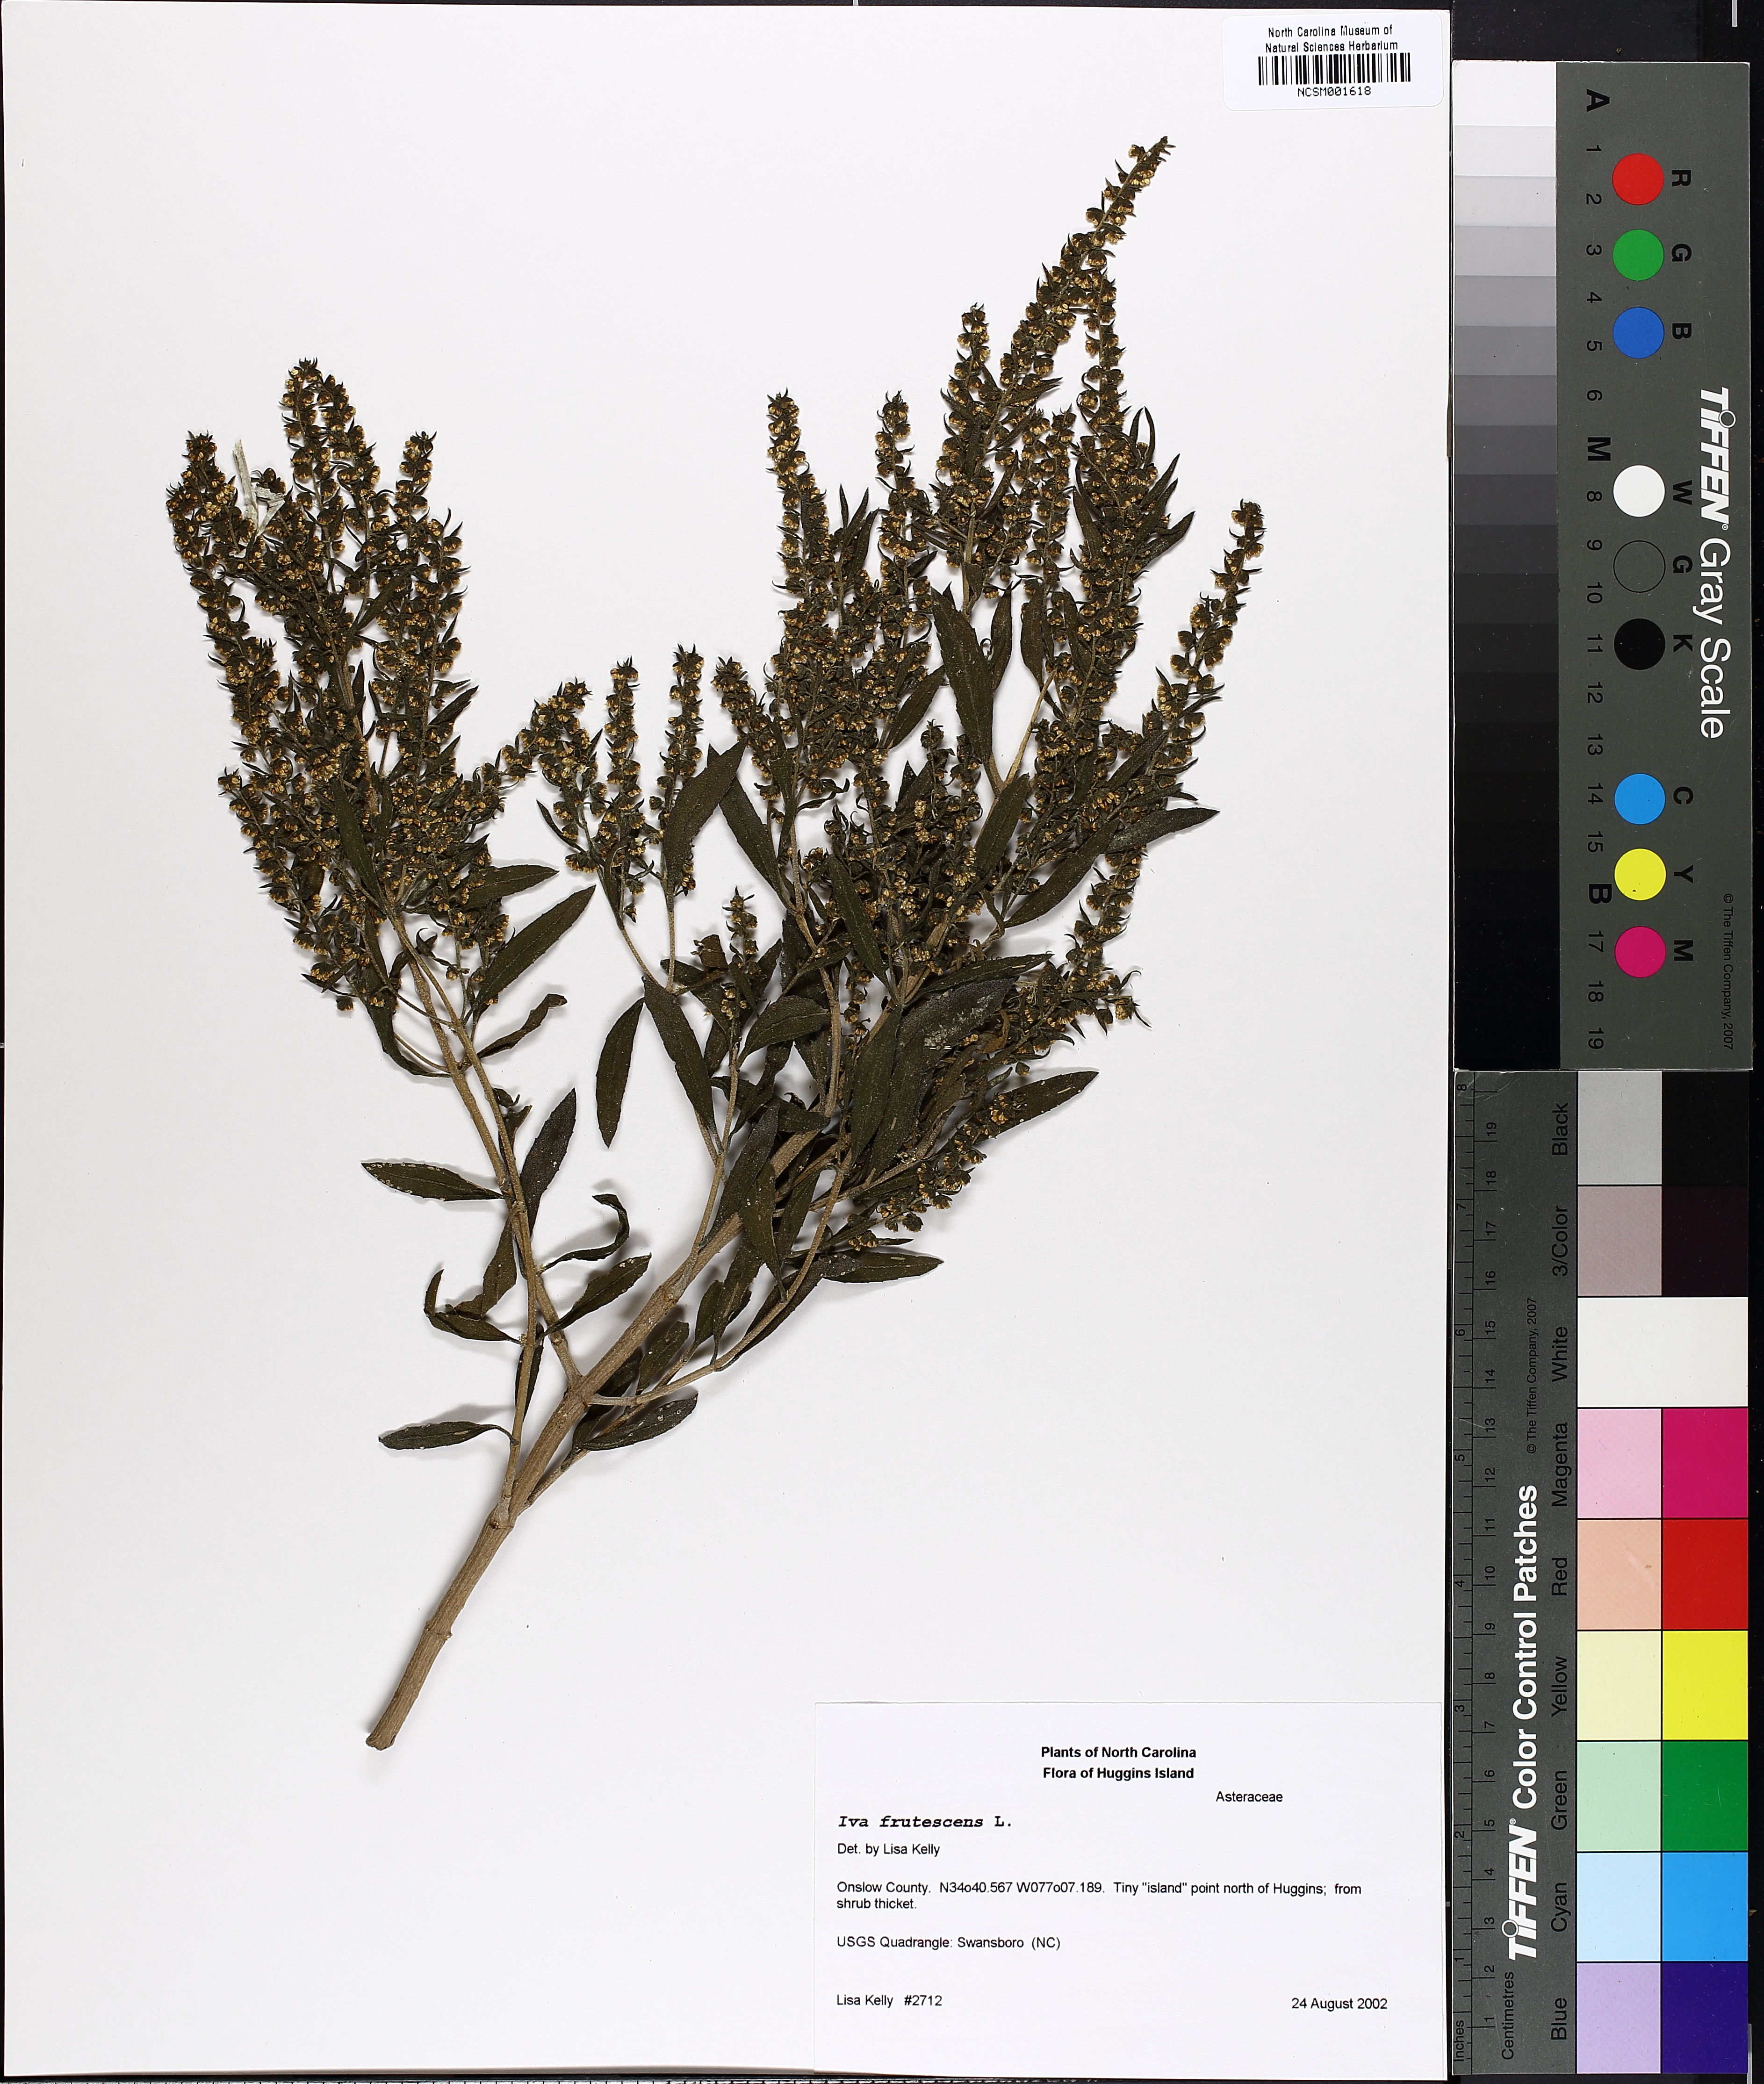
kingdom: Plantae
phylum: Tracheophyta
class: Magnoliopsida
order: Asterales
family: Asteraceae
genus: Iva
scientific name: Iva frutescens
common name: Big-leaved marsh-elder
